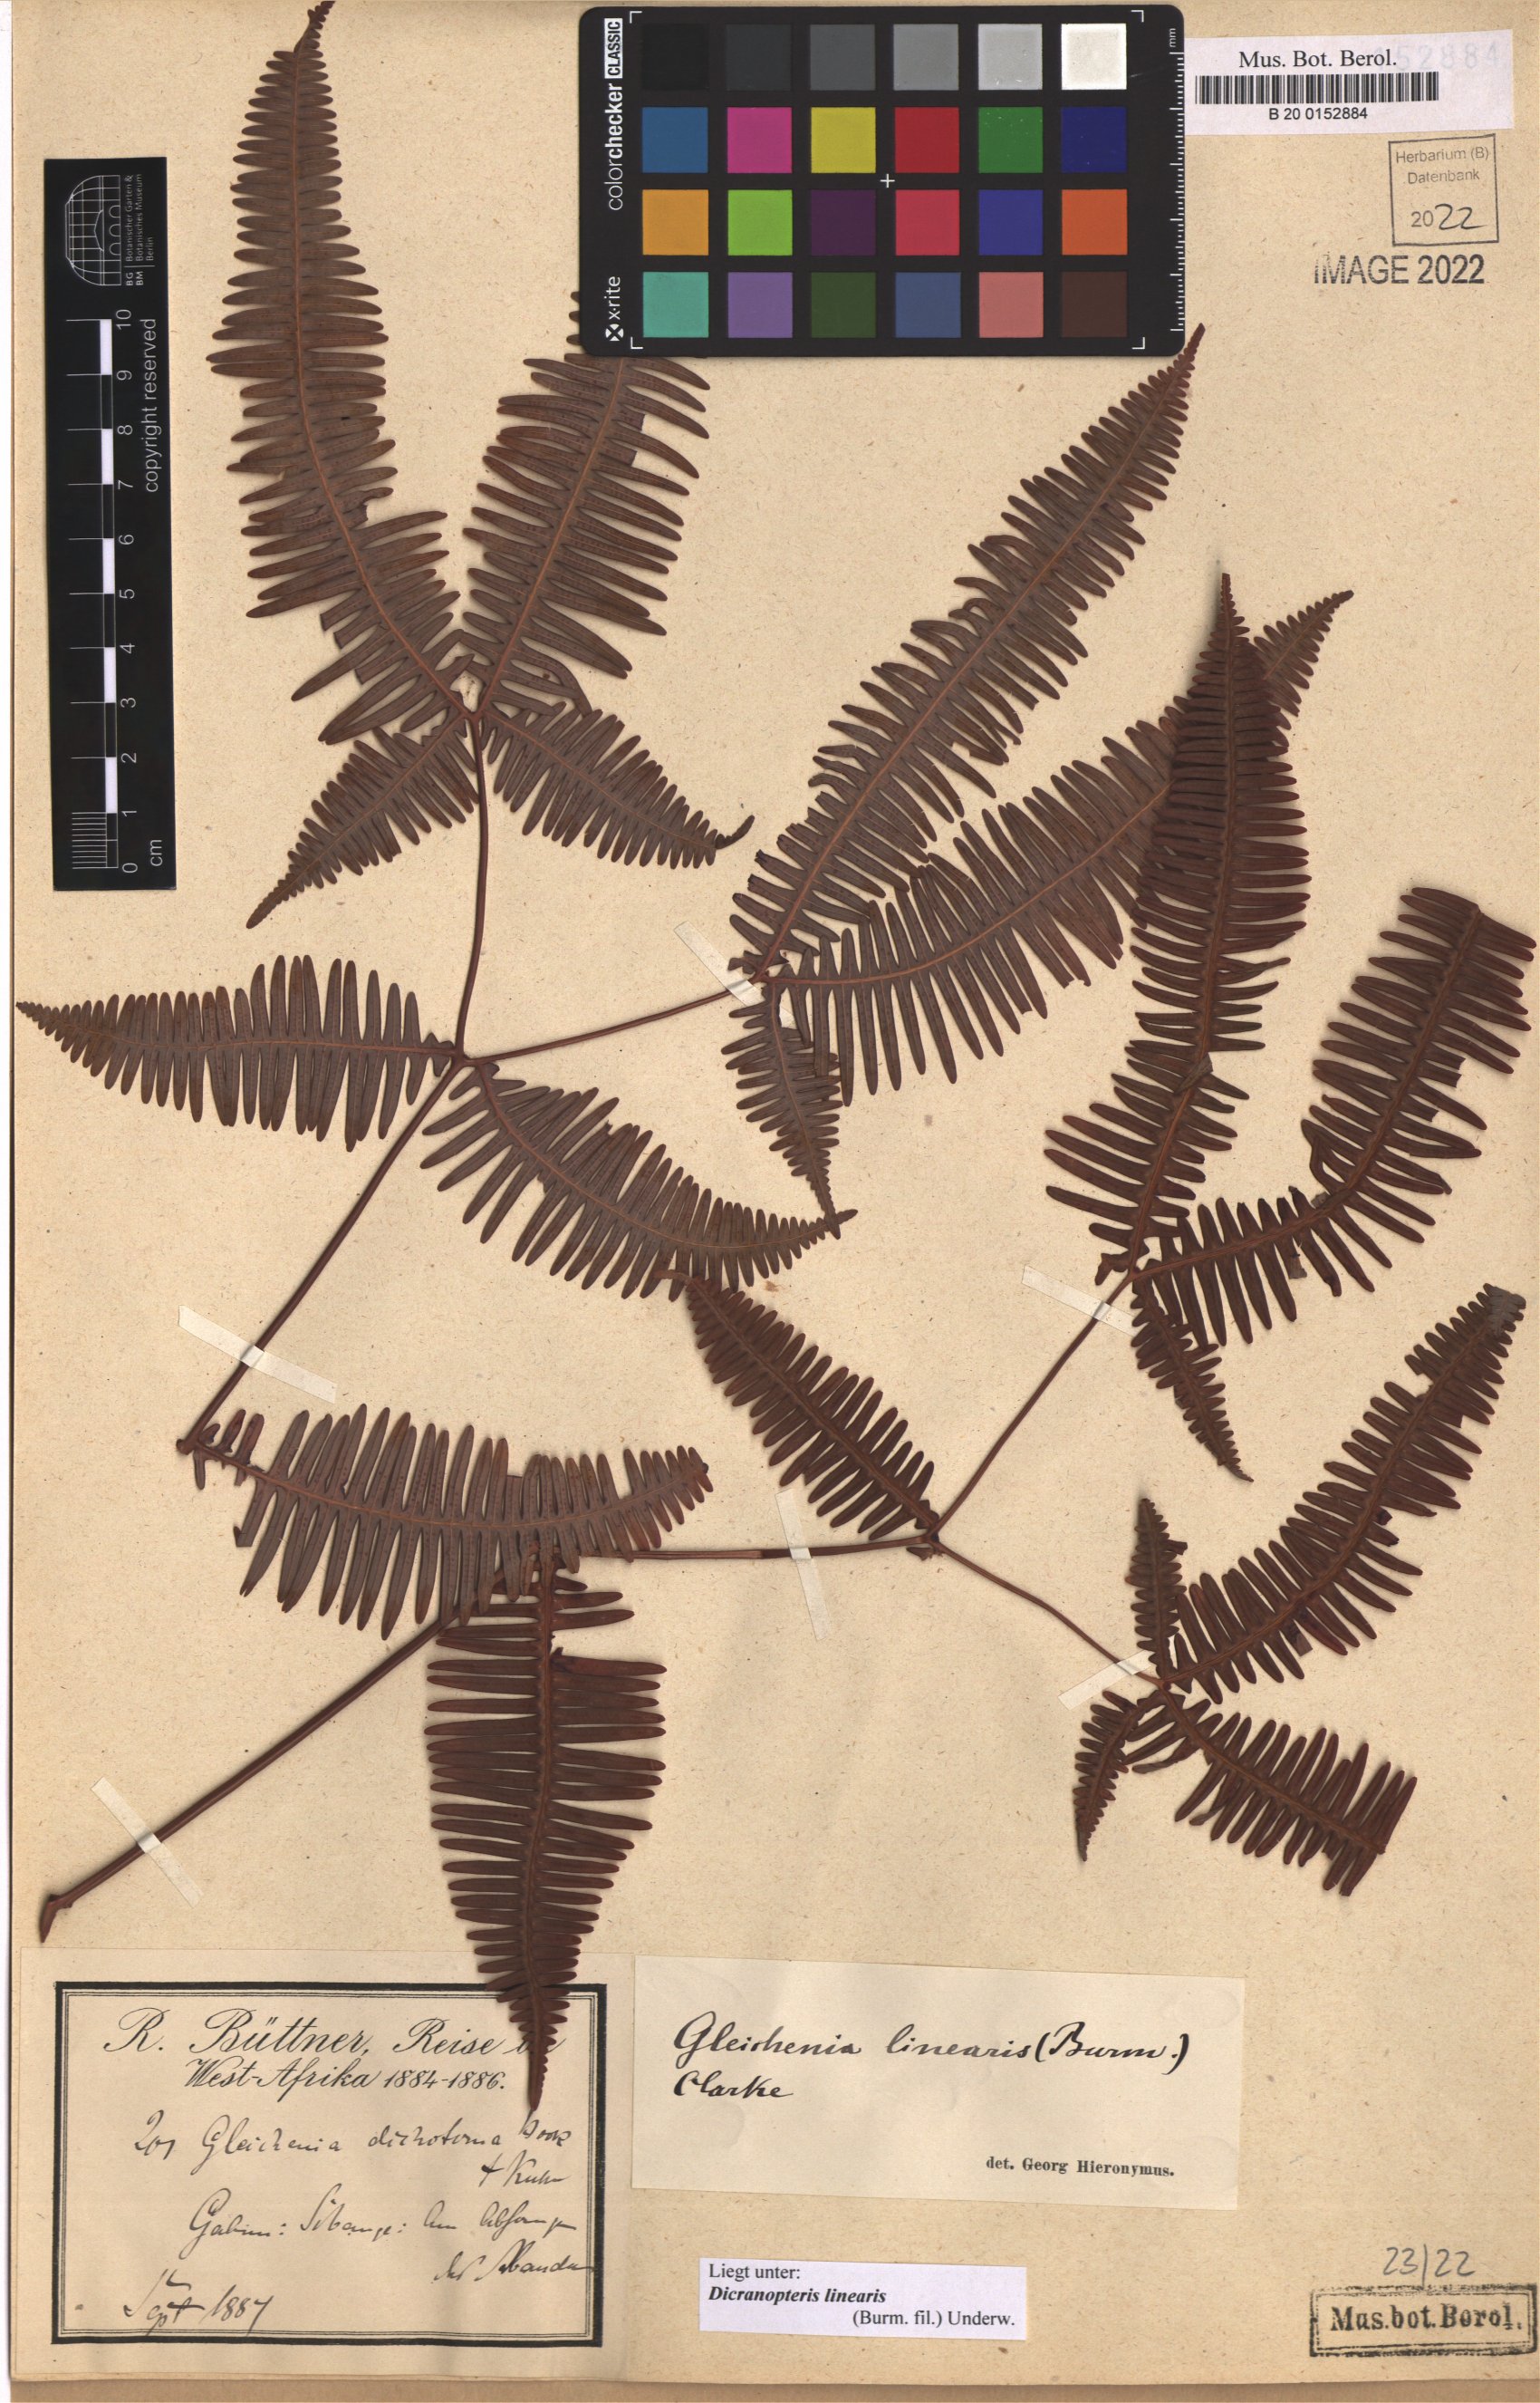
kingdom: Plantae
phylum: Tracheophyta
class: Polypodiopsida
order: Gleicheniales
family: Gleicheniaceae
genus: Dicranopteris
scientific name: Dicranopteris linearis
